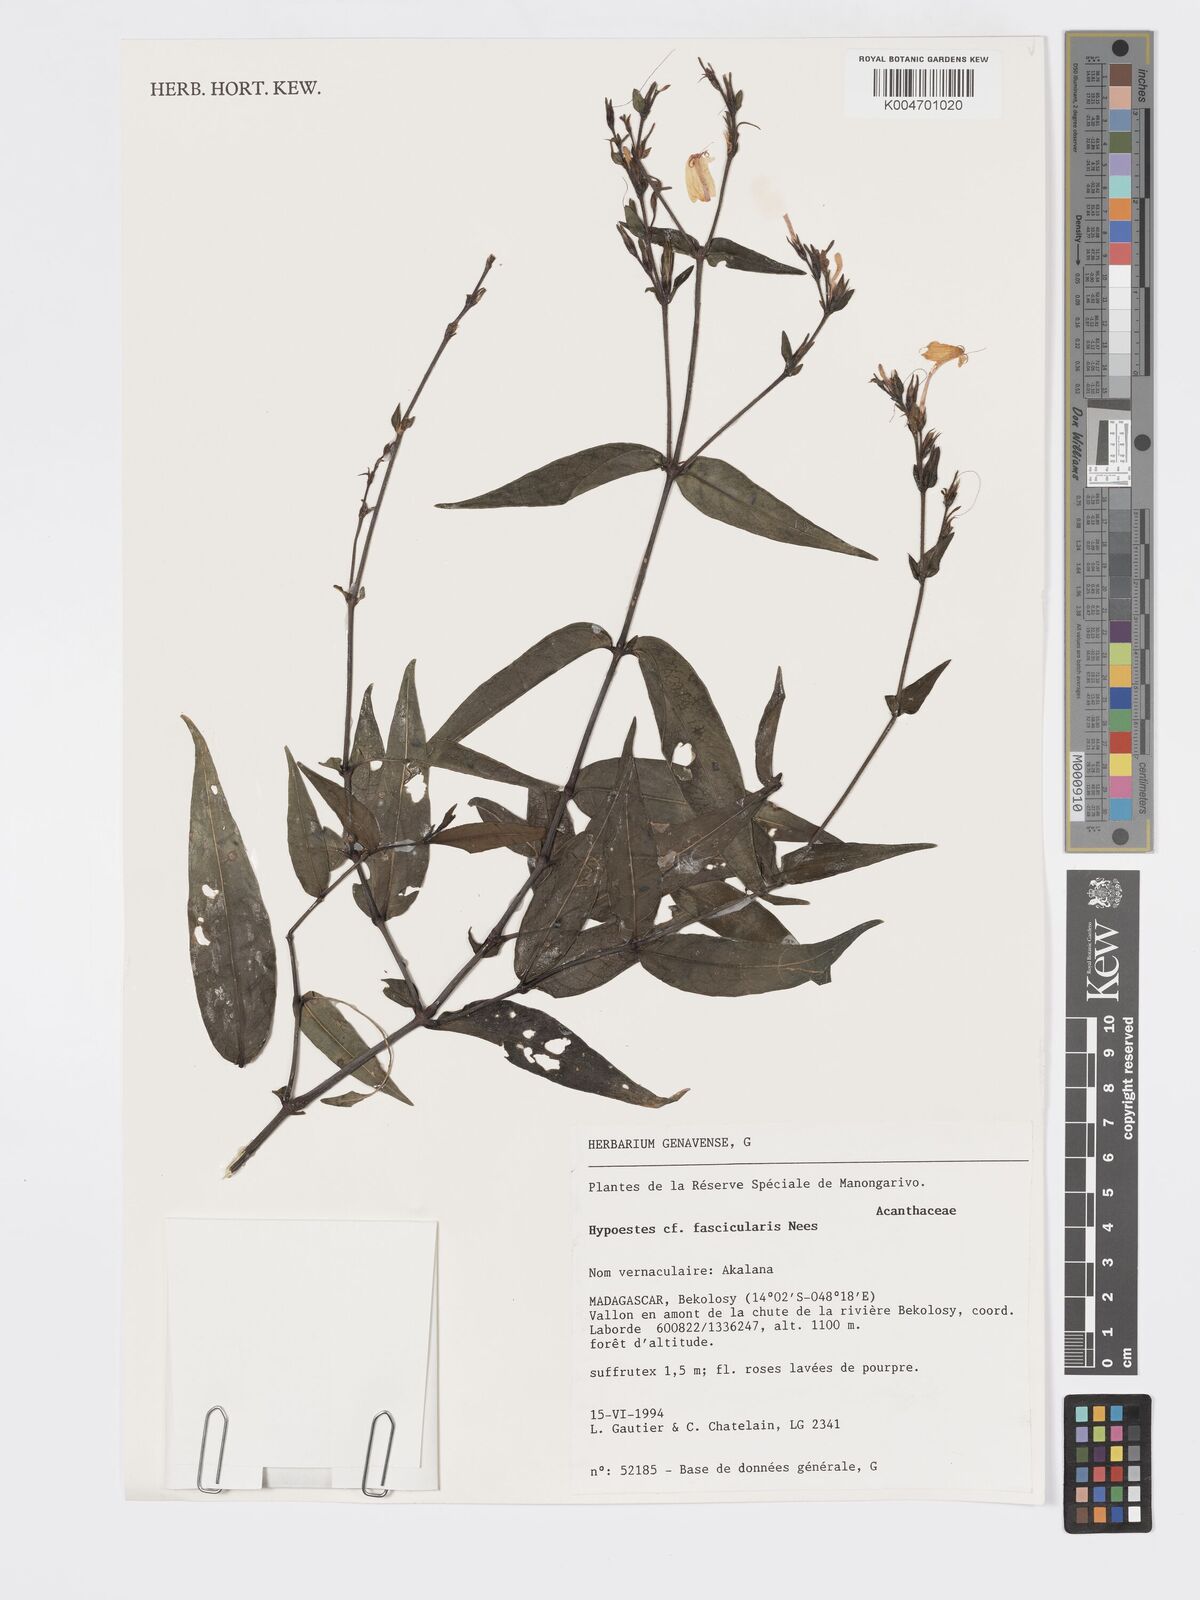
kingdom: Plantae
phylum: Tracheophyta
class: Magnoliopsida
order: Lamiales
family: Acanthaceae
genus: Hypoestes
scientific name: Hypoestes
